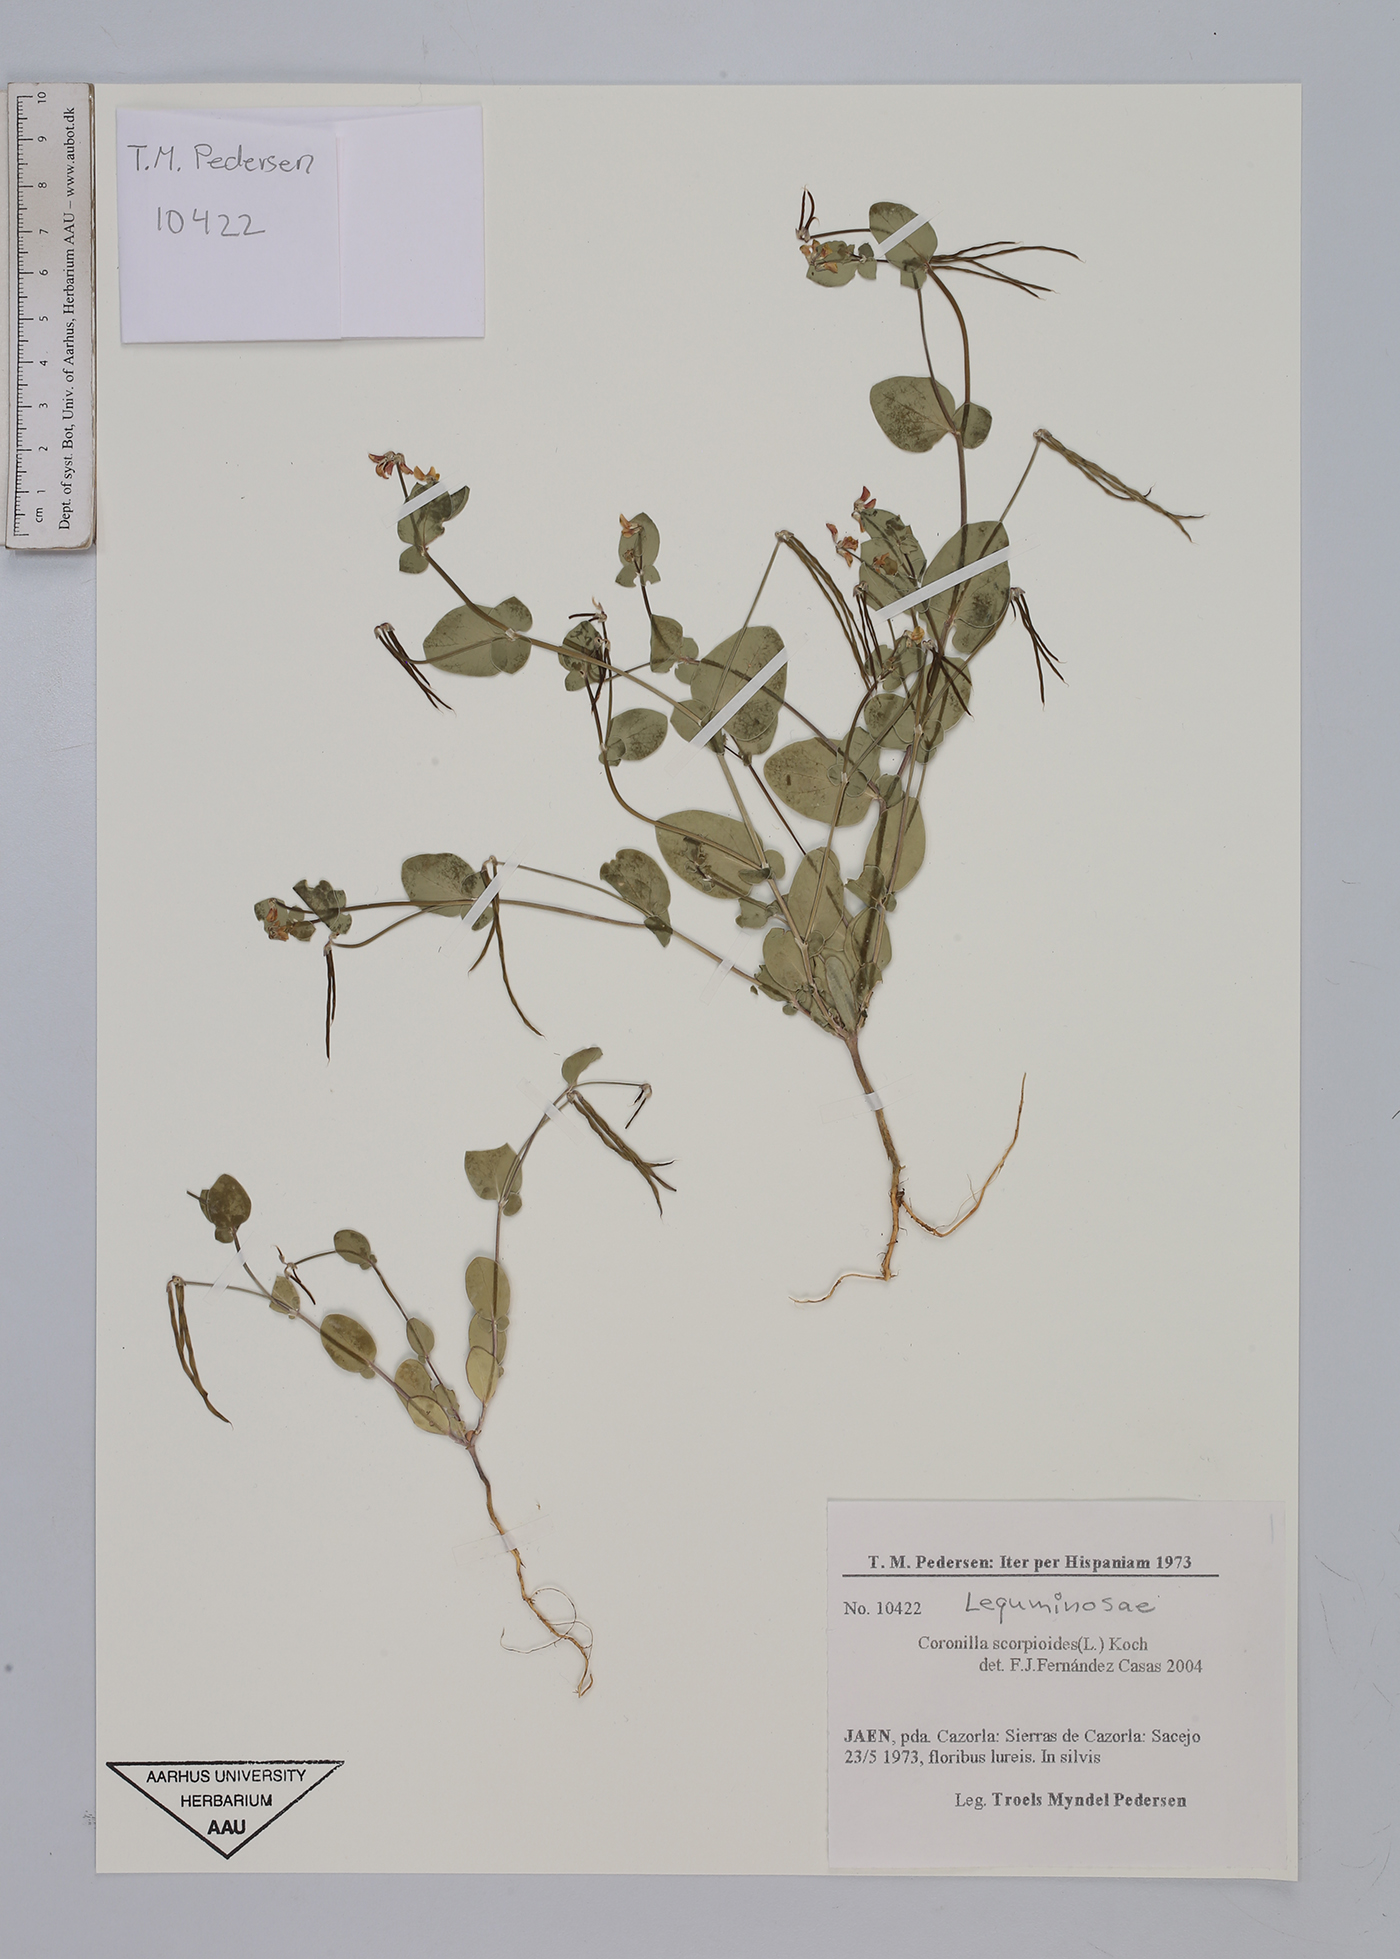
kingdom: Plantae
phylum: Tracheophyta
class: Magnoliopsida
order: Fabales
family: Fabaceae
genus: Coronilla
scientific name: Coronilla scorpioides
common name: Annual scorpion-vetch
